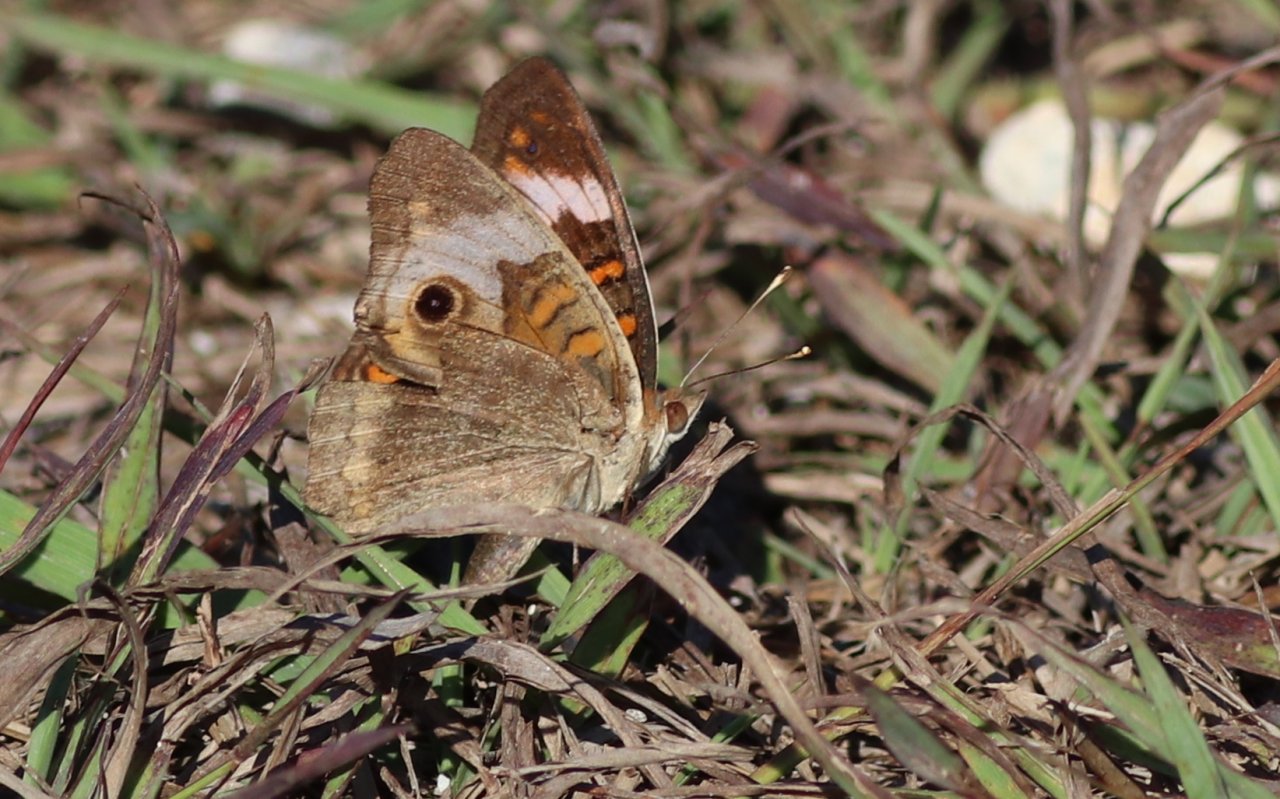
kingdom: Animalia
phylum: Arthropoda
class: Insecta
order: Lepidoptera
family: Nymphalidae
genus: Junonia
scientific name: Junonia coenia
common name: Common Buckeye
